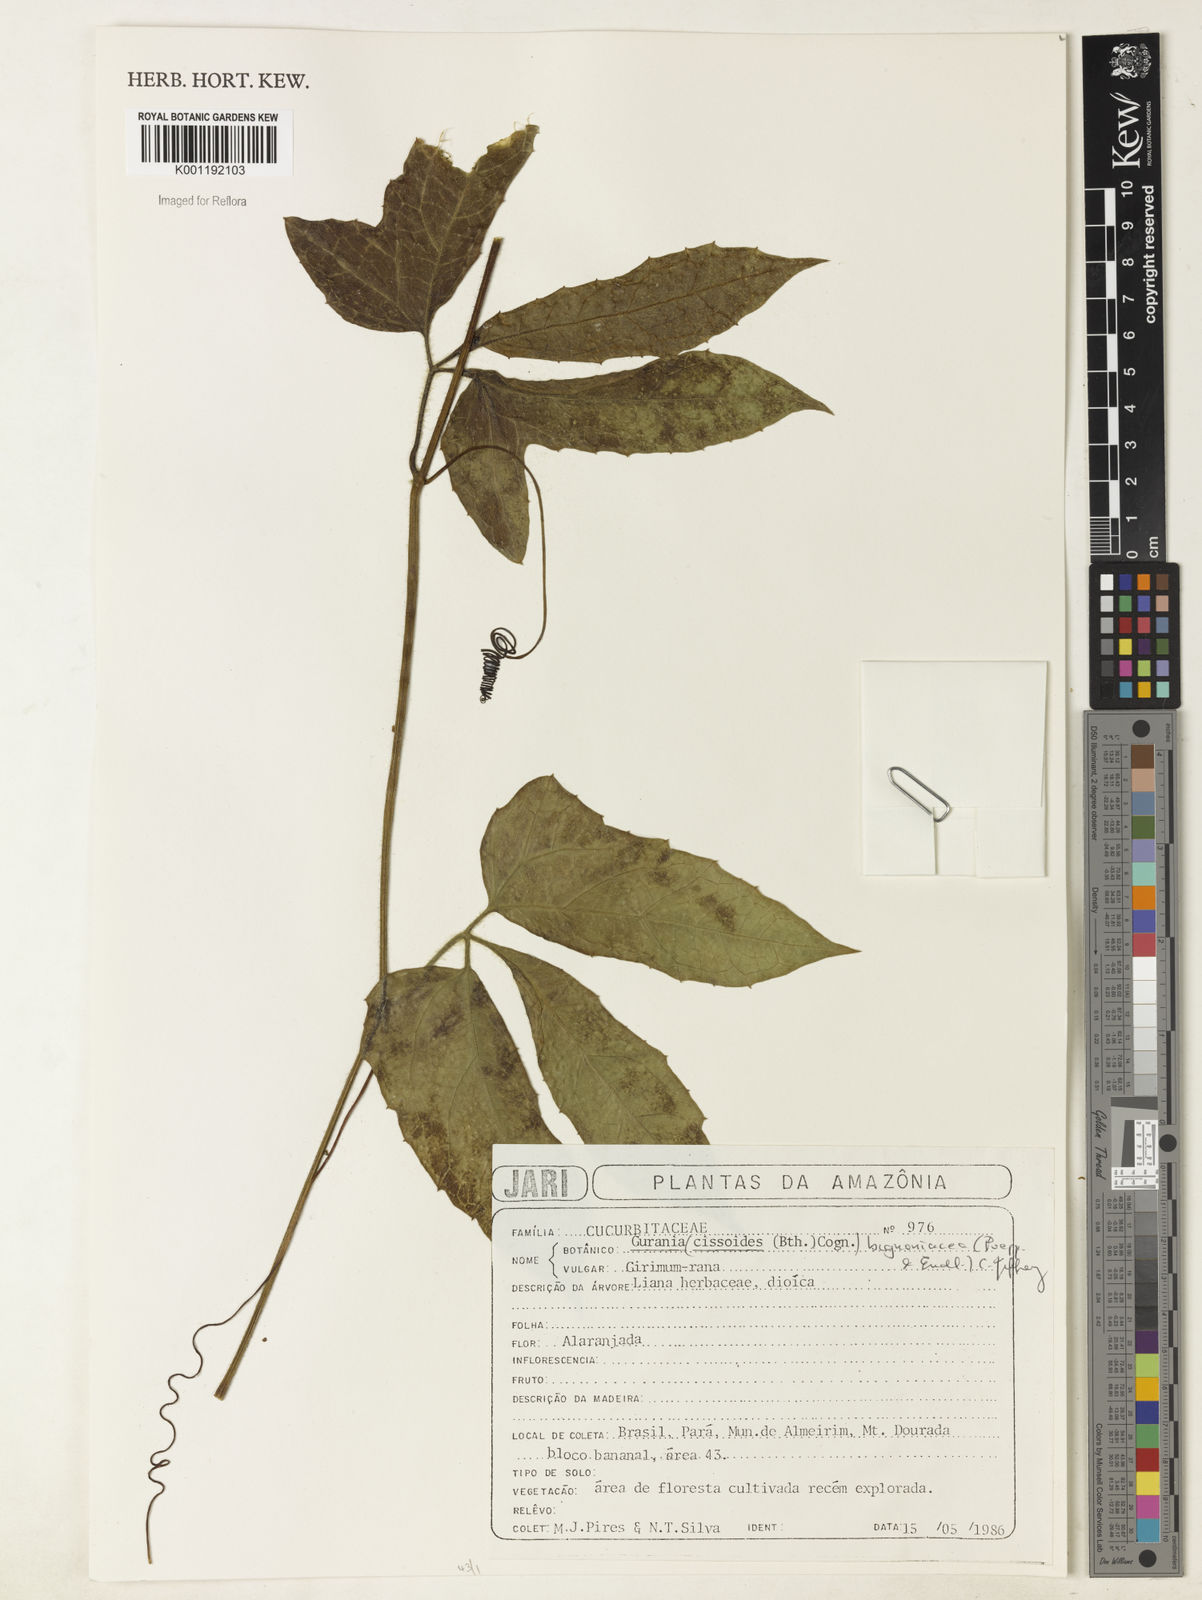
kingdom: Plantae
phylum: Tracheophyta
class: Magnoliopsida
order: Cucurbitales
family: Cucurbitaceae
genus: Gurania
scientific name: Gurania bignoniacea
